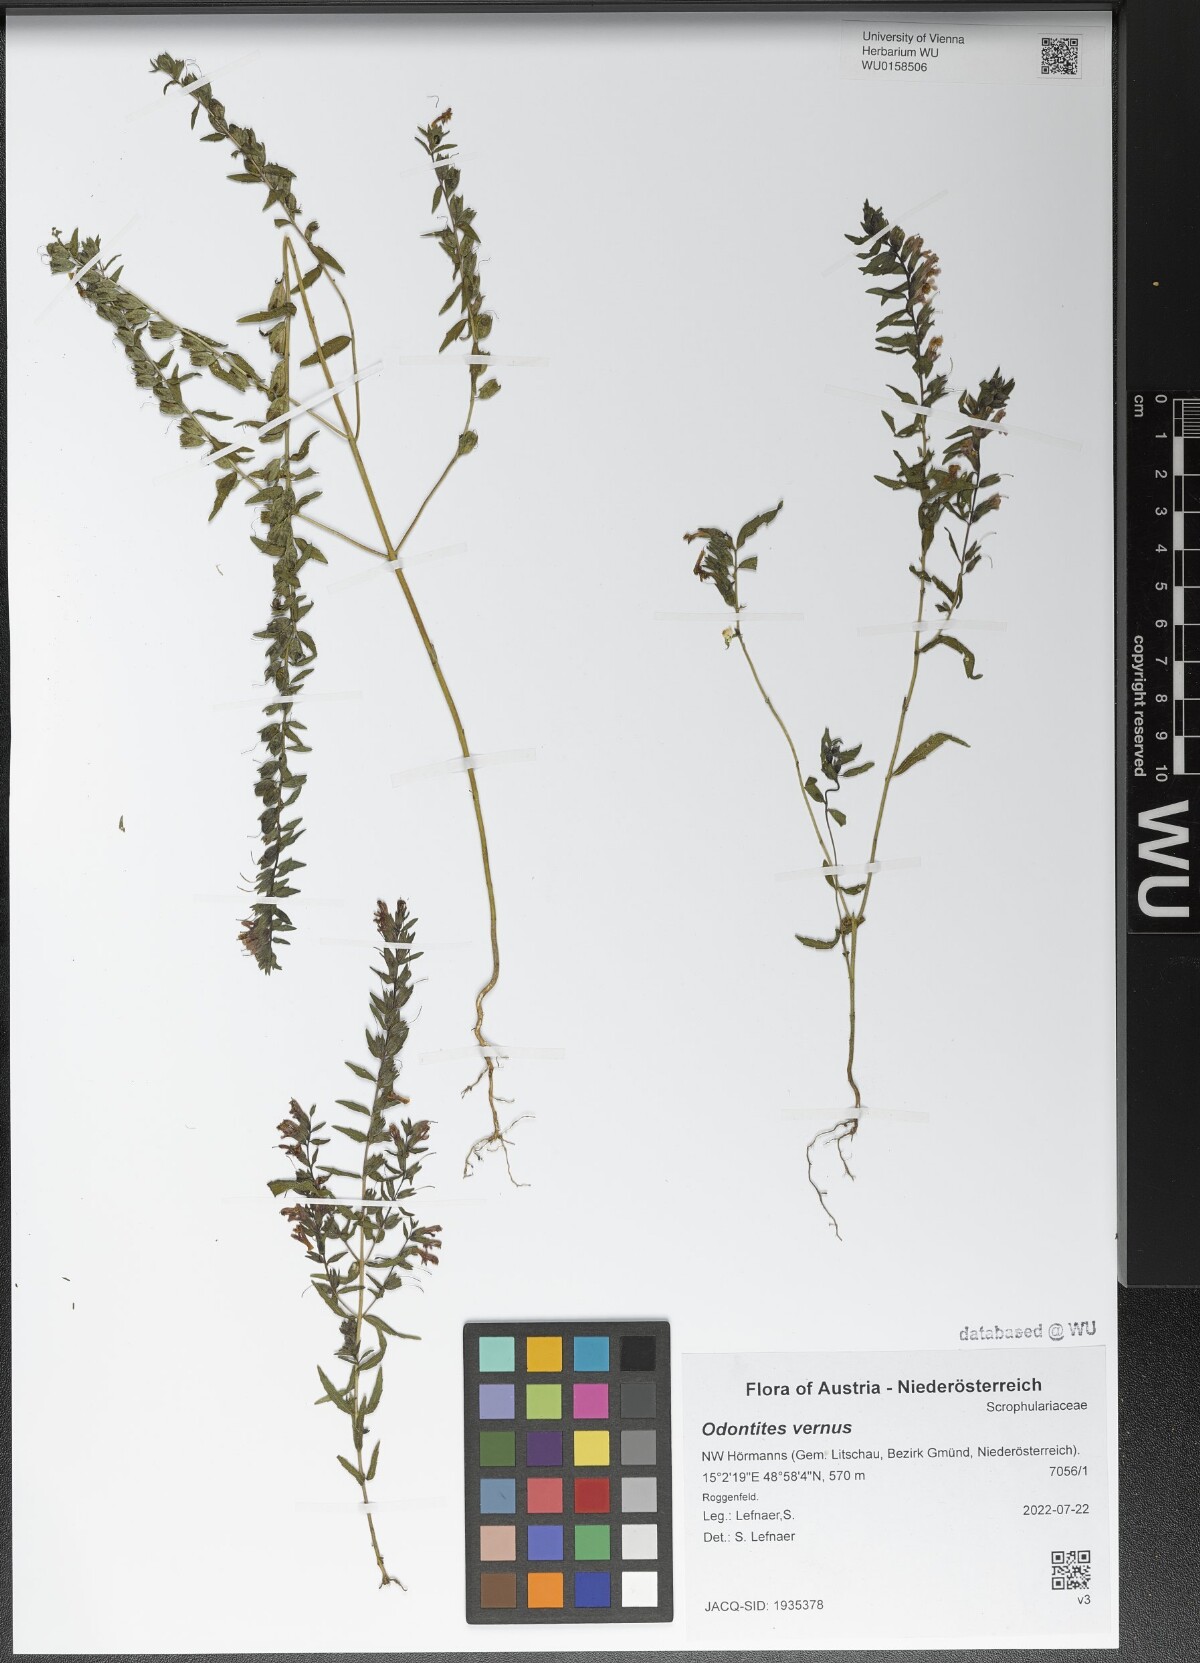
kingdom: Plantae
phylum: Tracheophyta
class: Magnoliopsida
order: Lamiales
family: Orobanchaceae
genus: Odontites
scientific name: Odontites vernus
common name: Red bartsia
